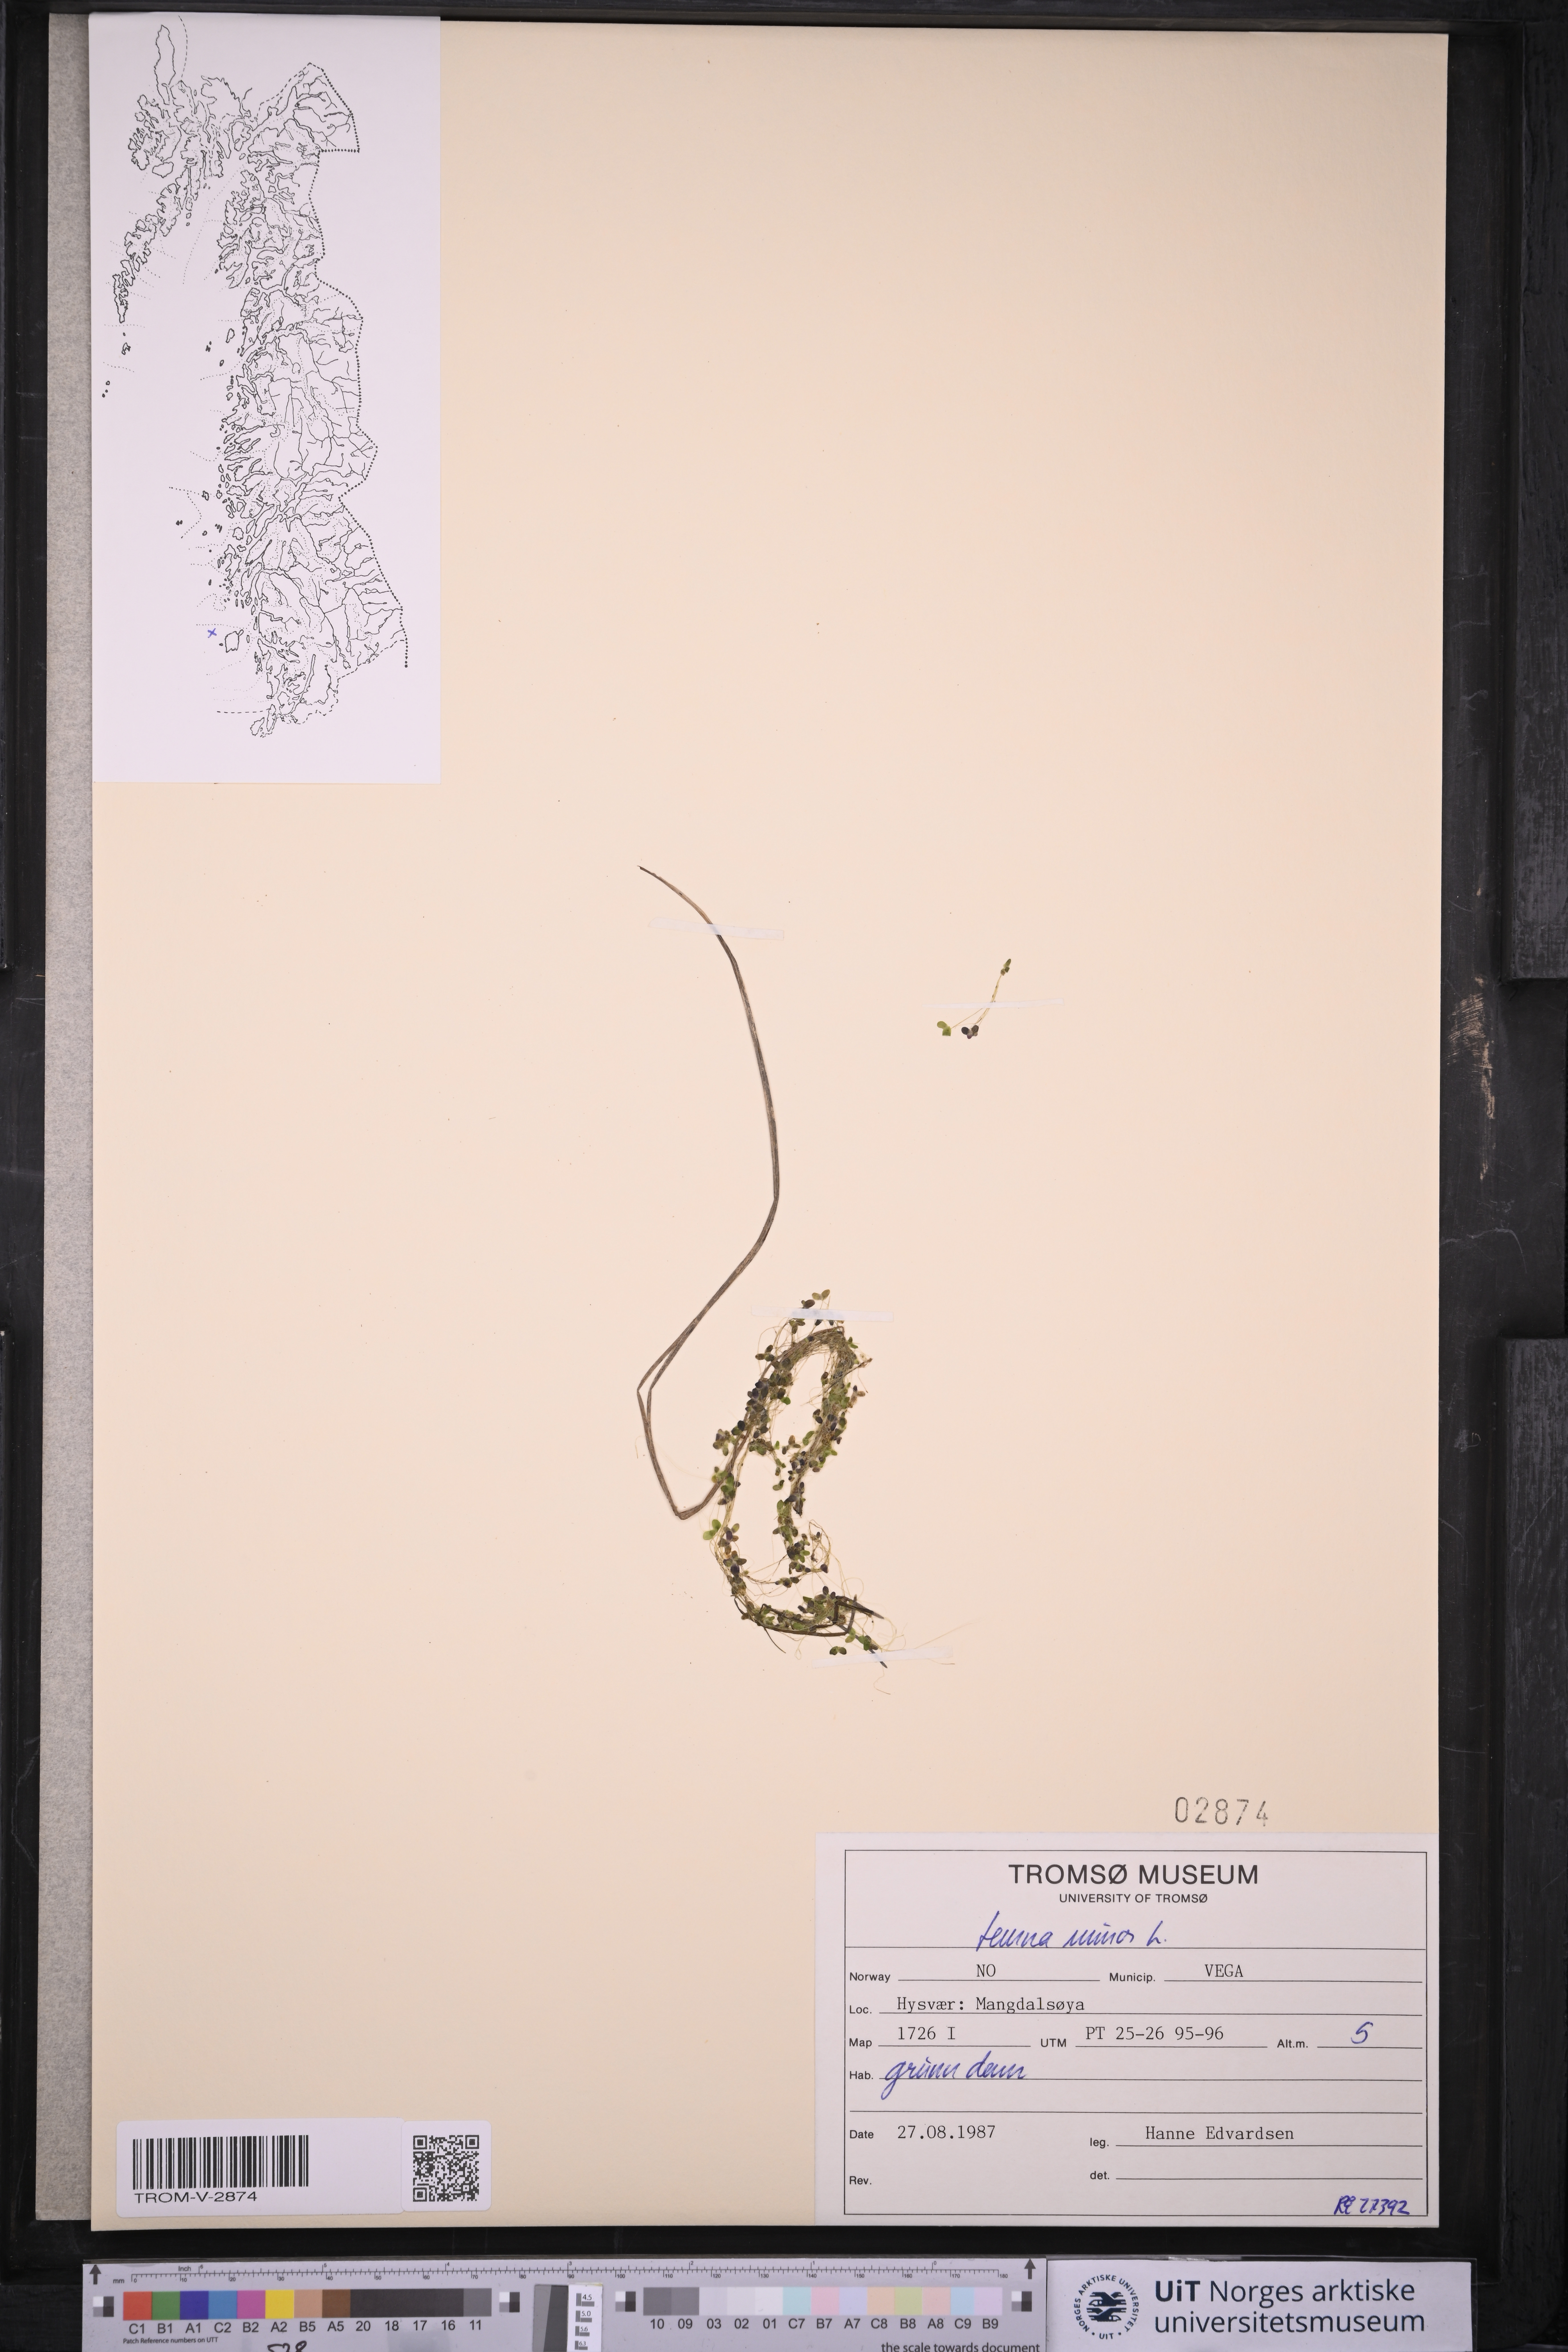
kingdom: Plantae
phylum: Tracheophyta
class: Liliopsida
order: Alismatales
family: Araceae
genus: Lemna
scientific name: Lemna minor
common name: Common duckweed
